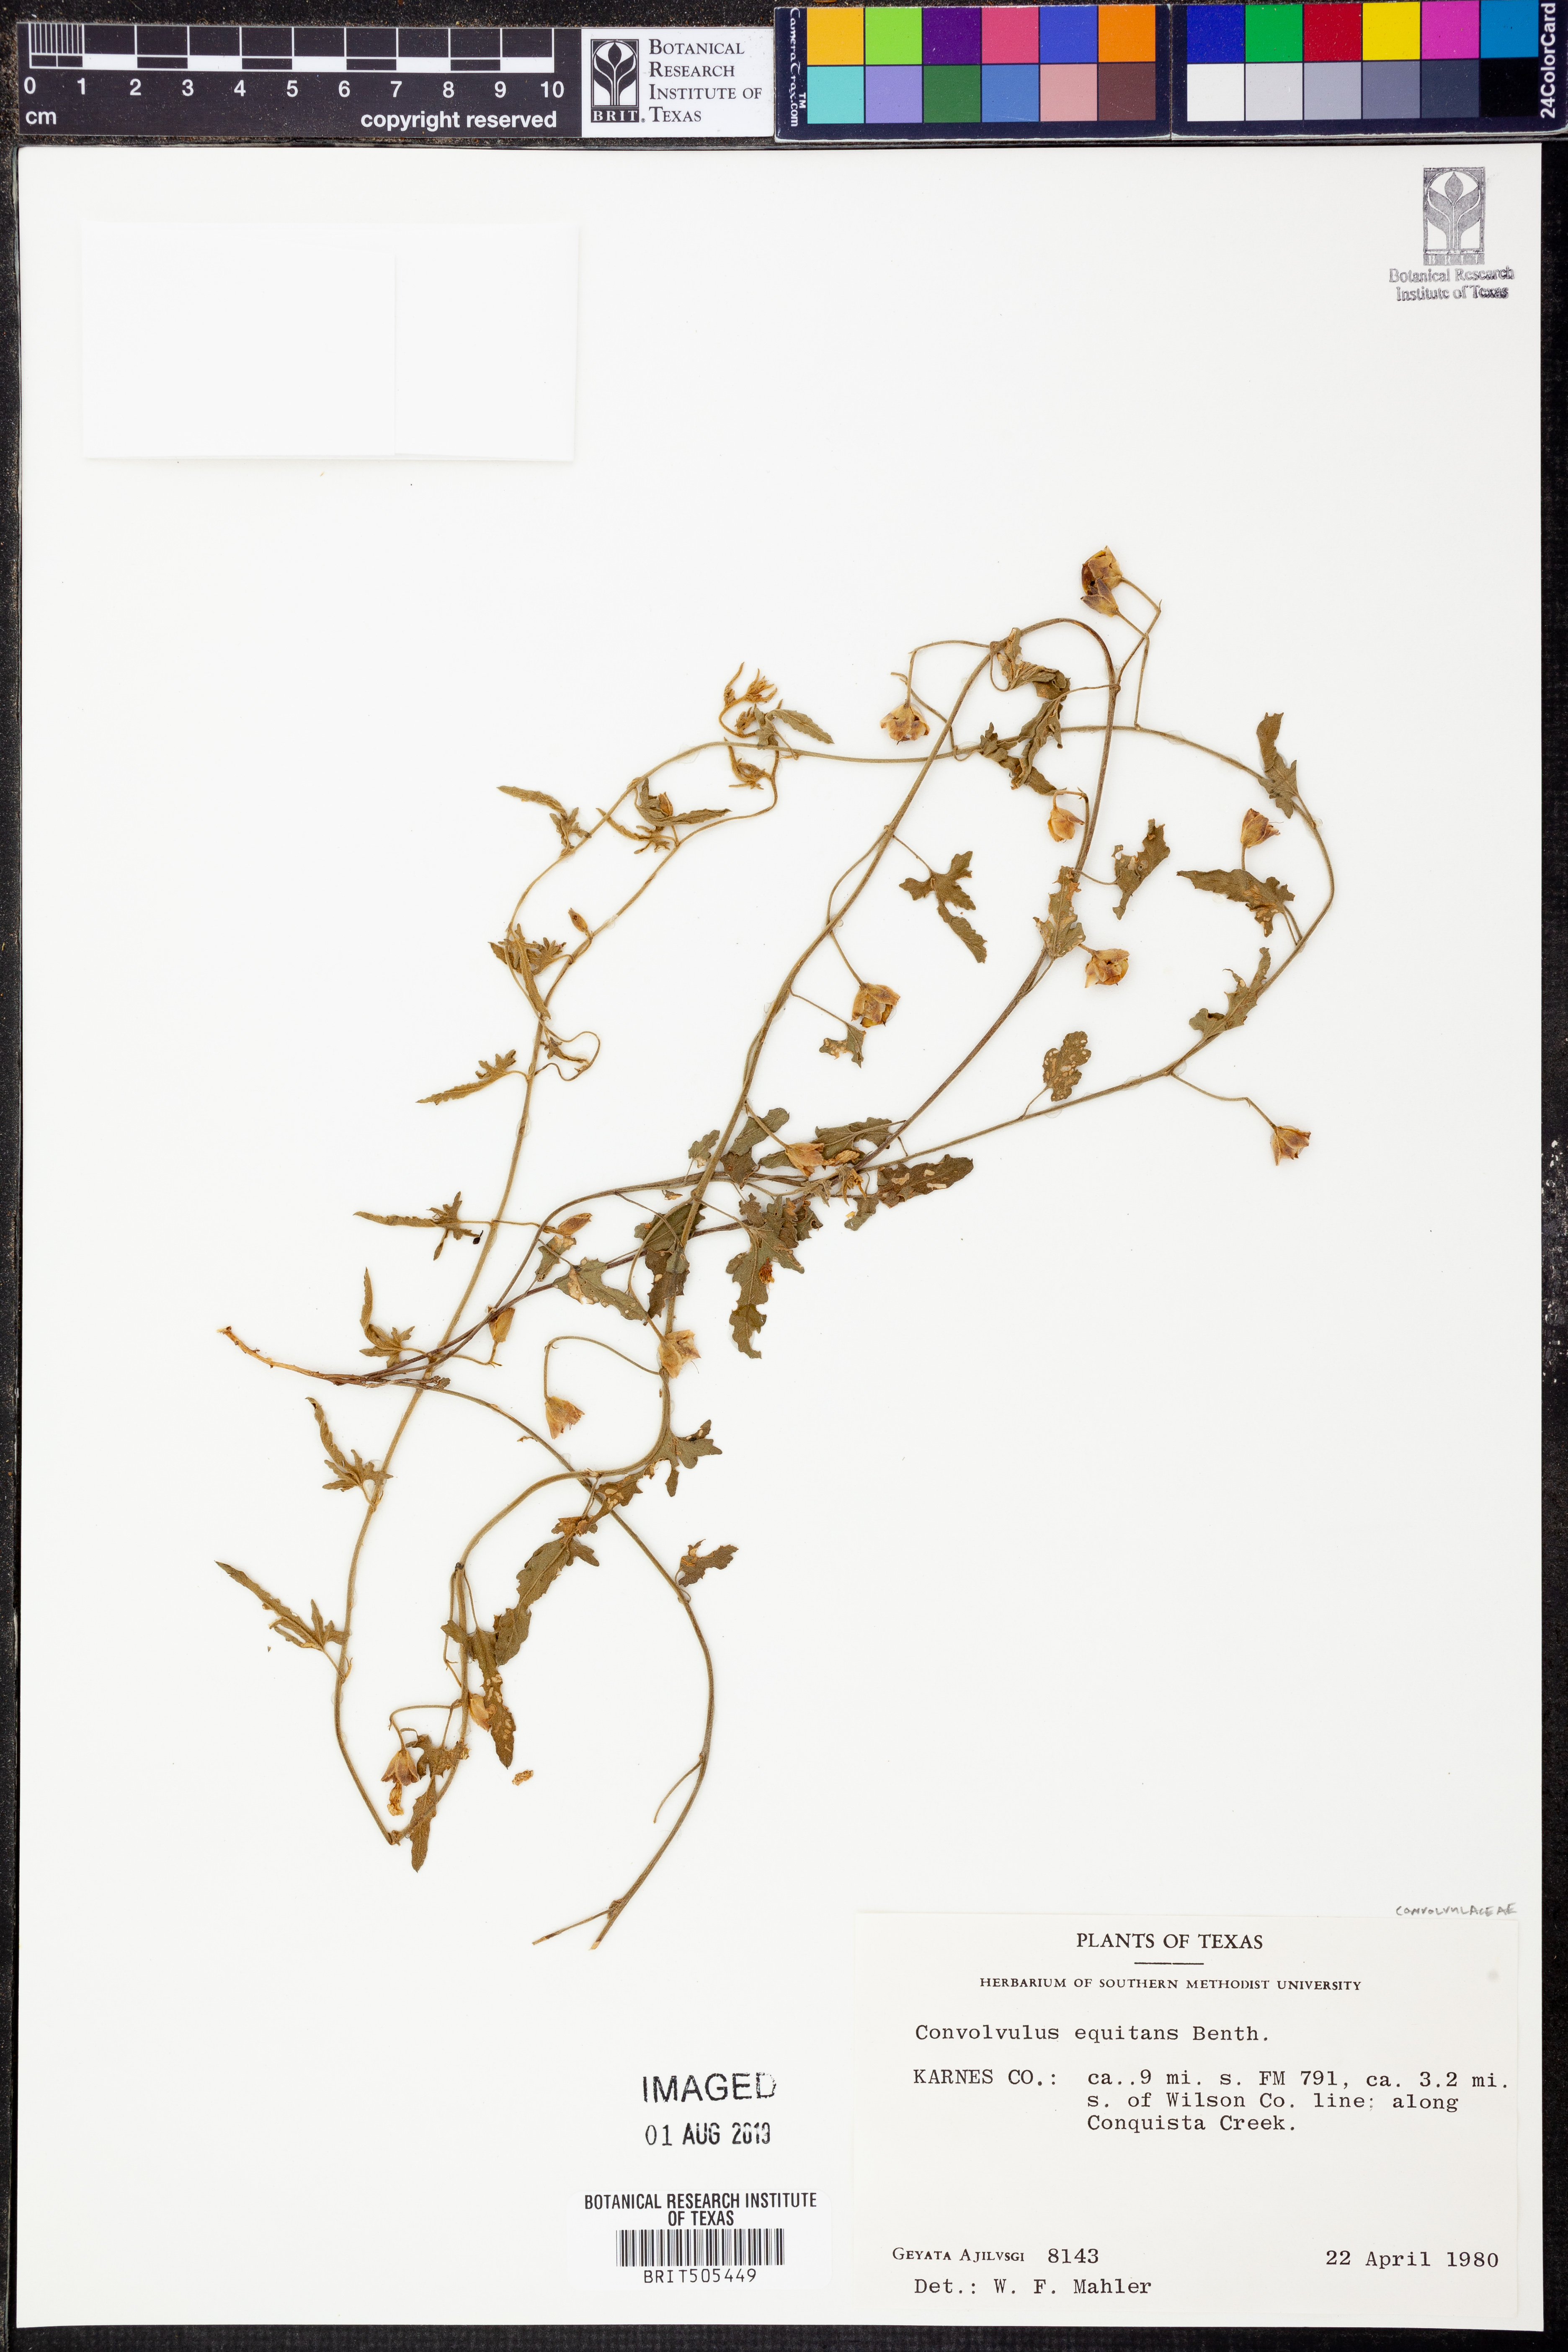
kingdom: Plantae
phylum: Tracheophyta
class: Magnoliopsida
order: Solanales
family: Convolvulaceae
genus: Convolvulus
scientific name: Convolvulus equitans
